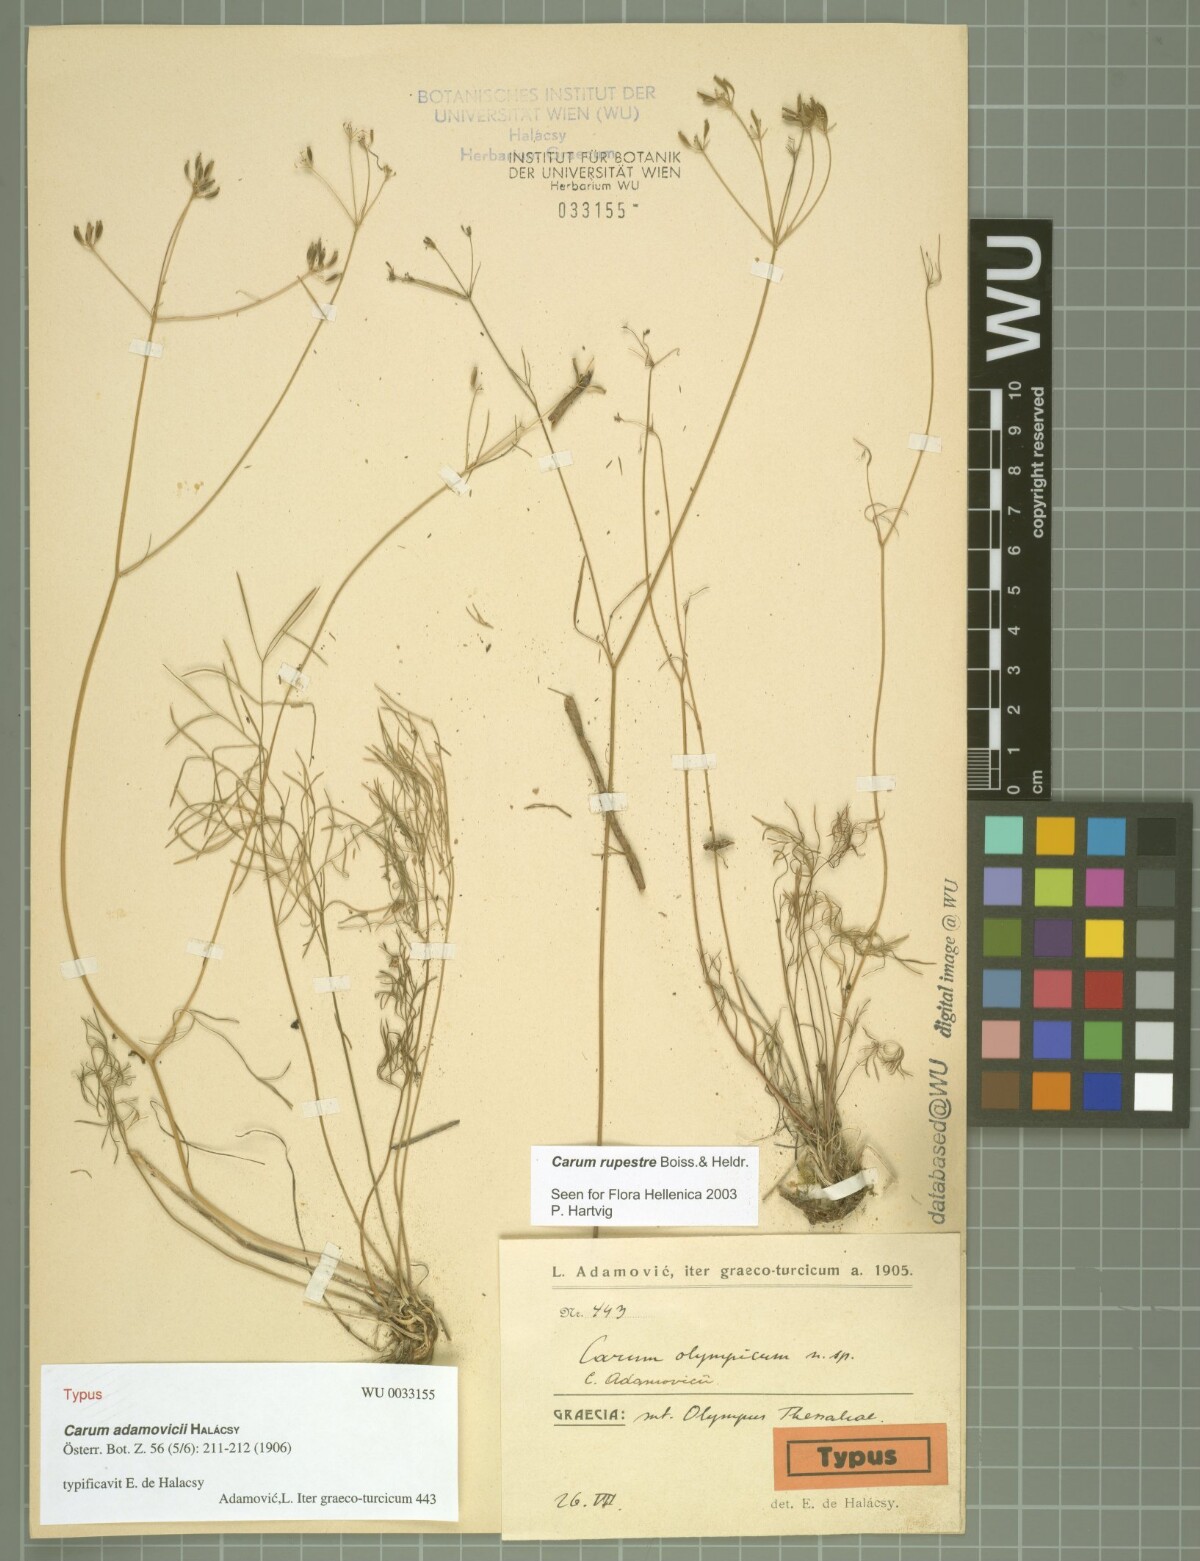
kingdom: Plantae
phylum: Tracheophyta
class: Magnoliopsida
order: Apiales
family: Apiaceae
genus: Carum
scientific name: Carum meoides
